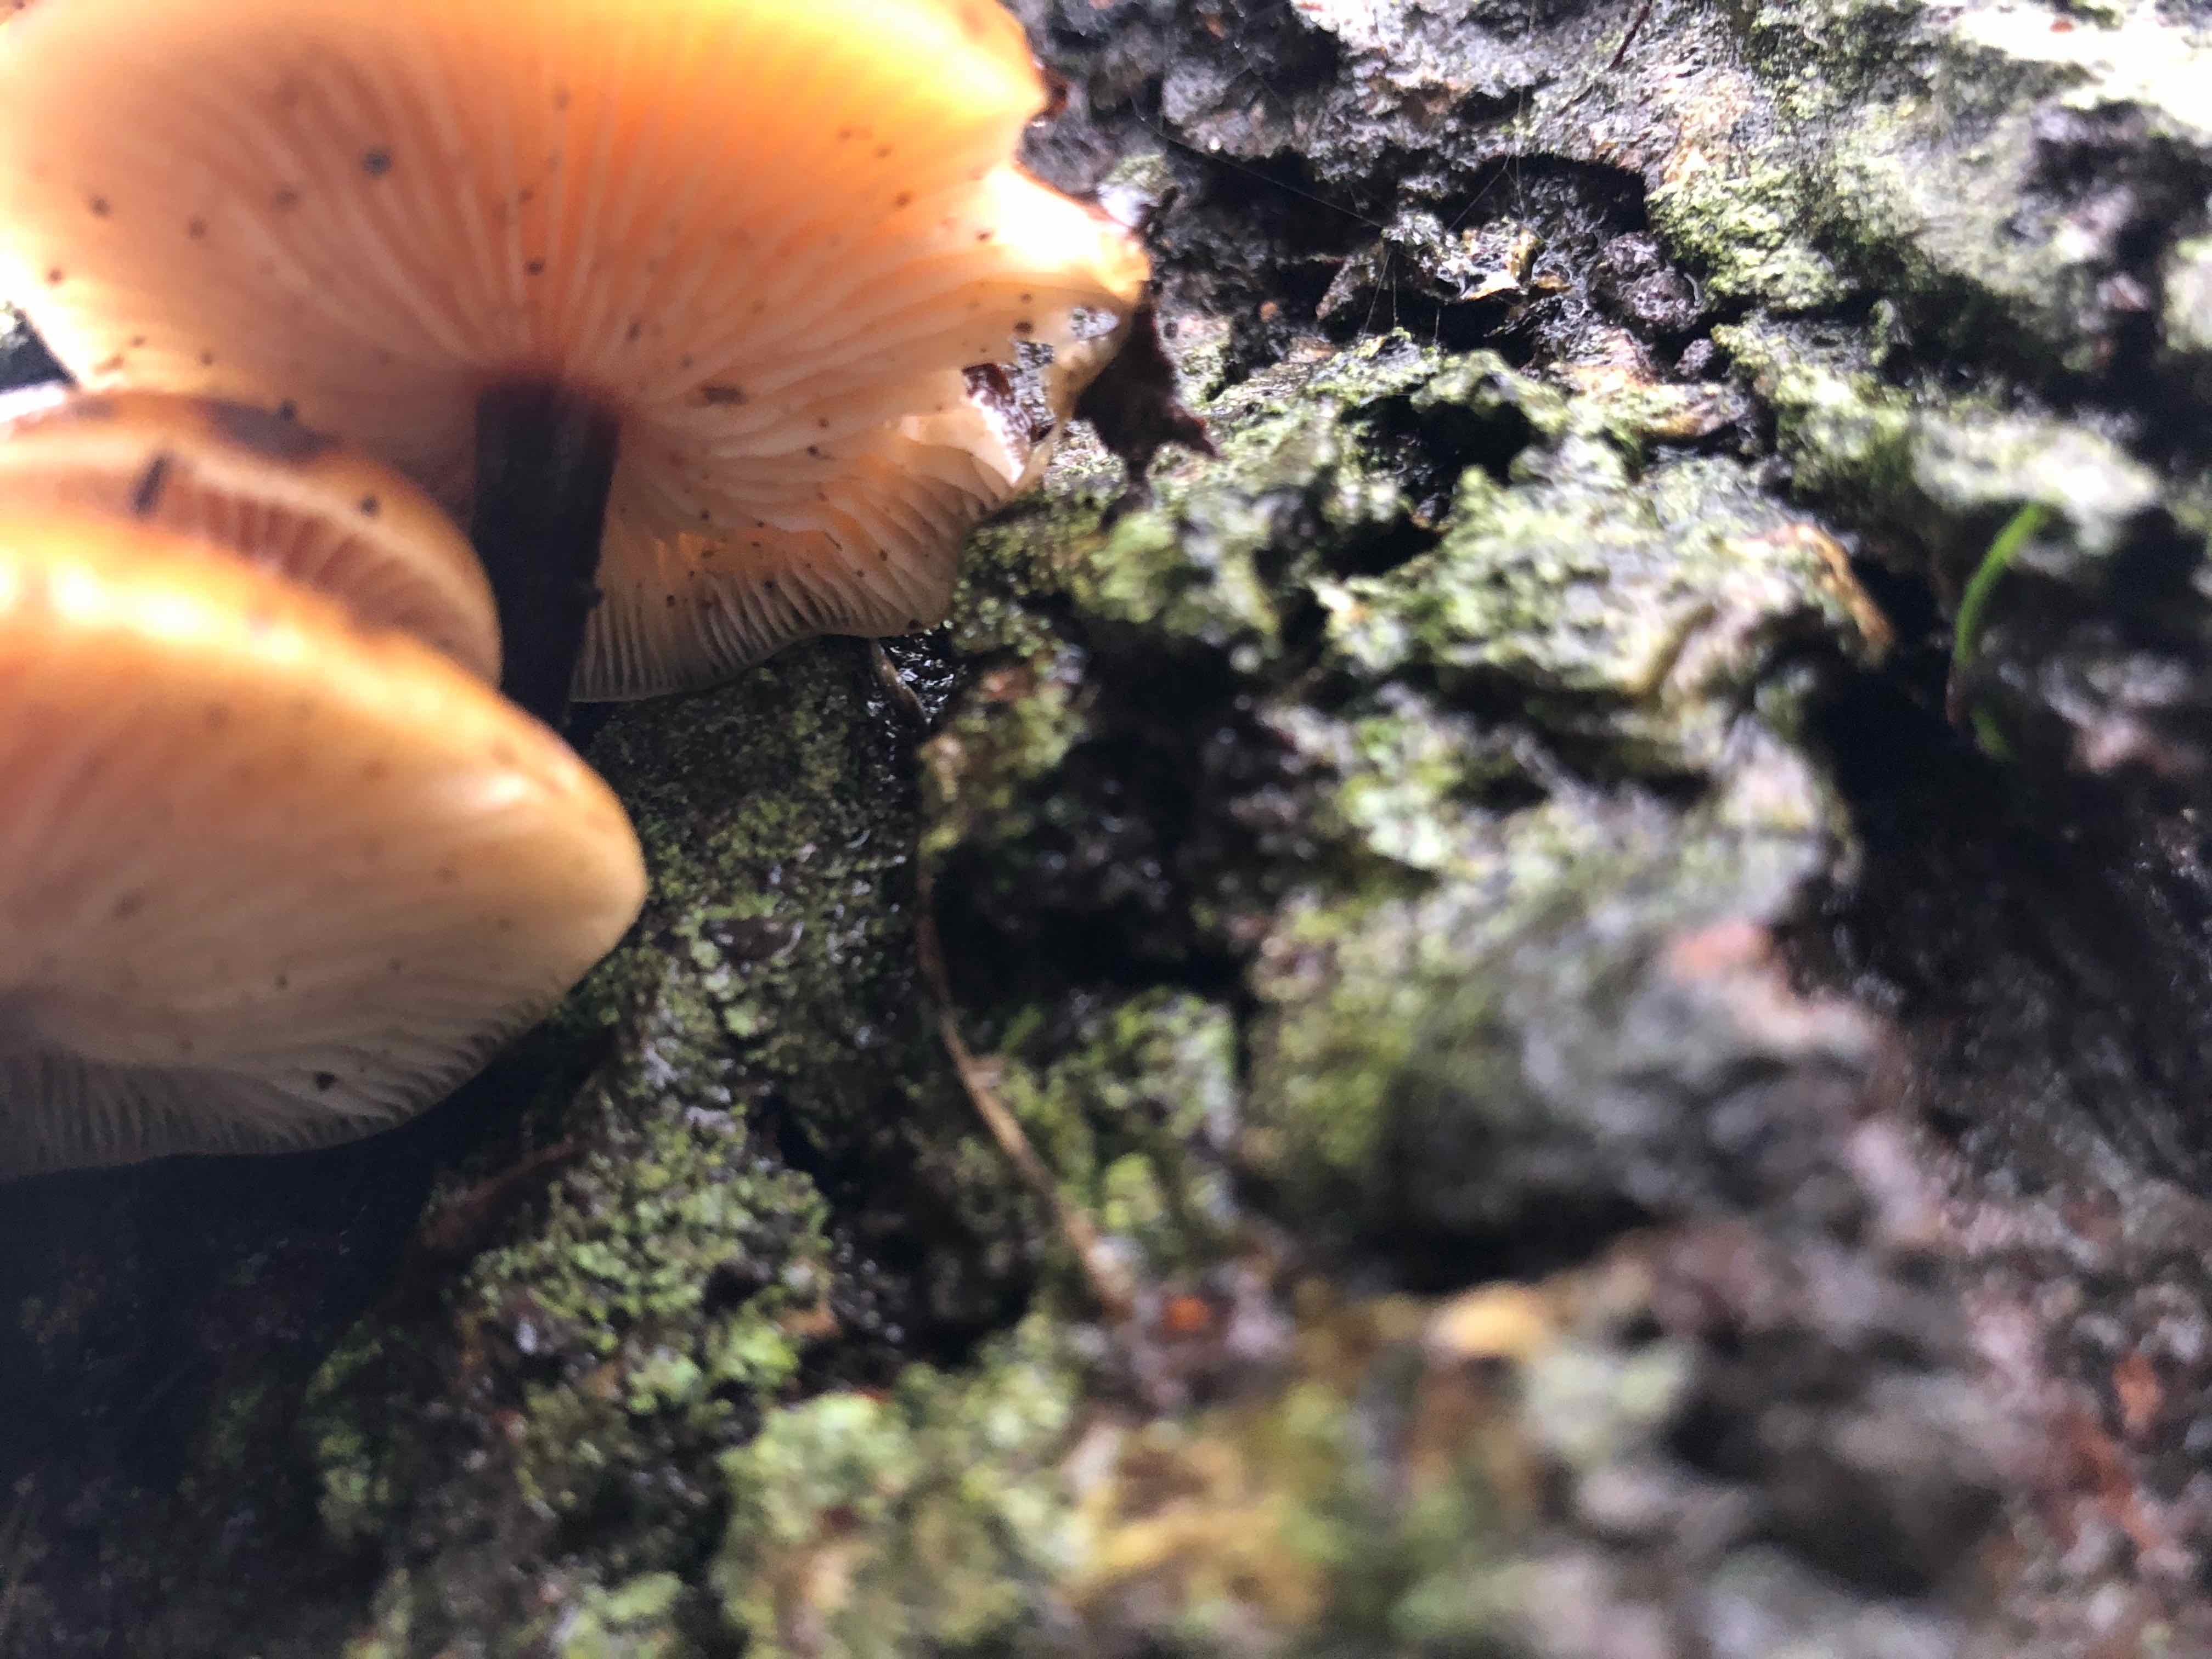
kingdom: Fungi
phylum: Basidiomycota
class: Agaricomycetes
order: Agaricales
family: Physalacriaceae
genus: Flammulina
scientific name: Flammulina velutipes
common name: gul fløjlsfod
